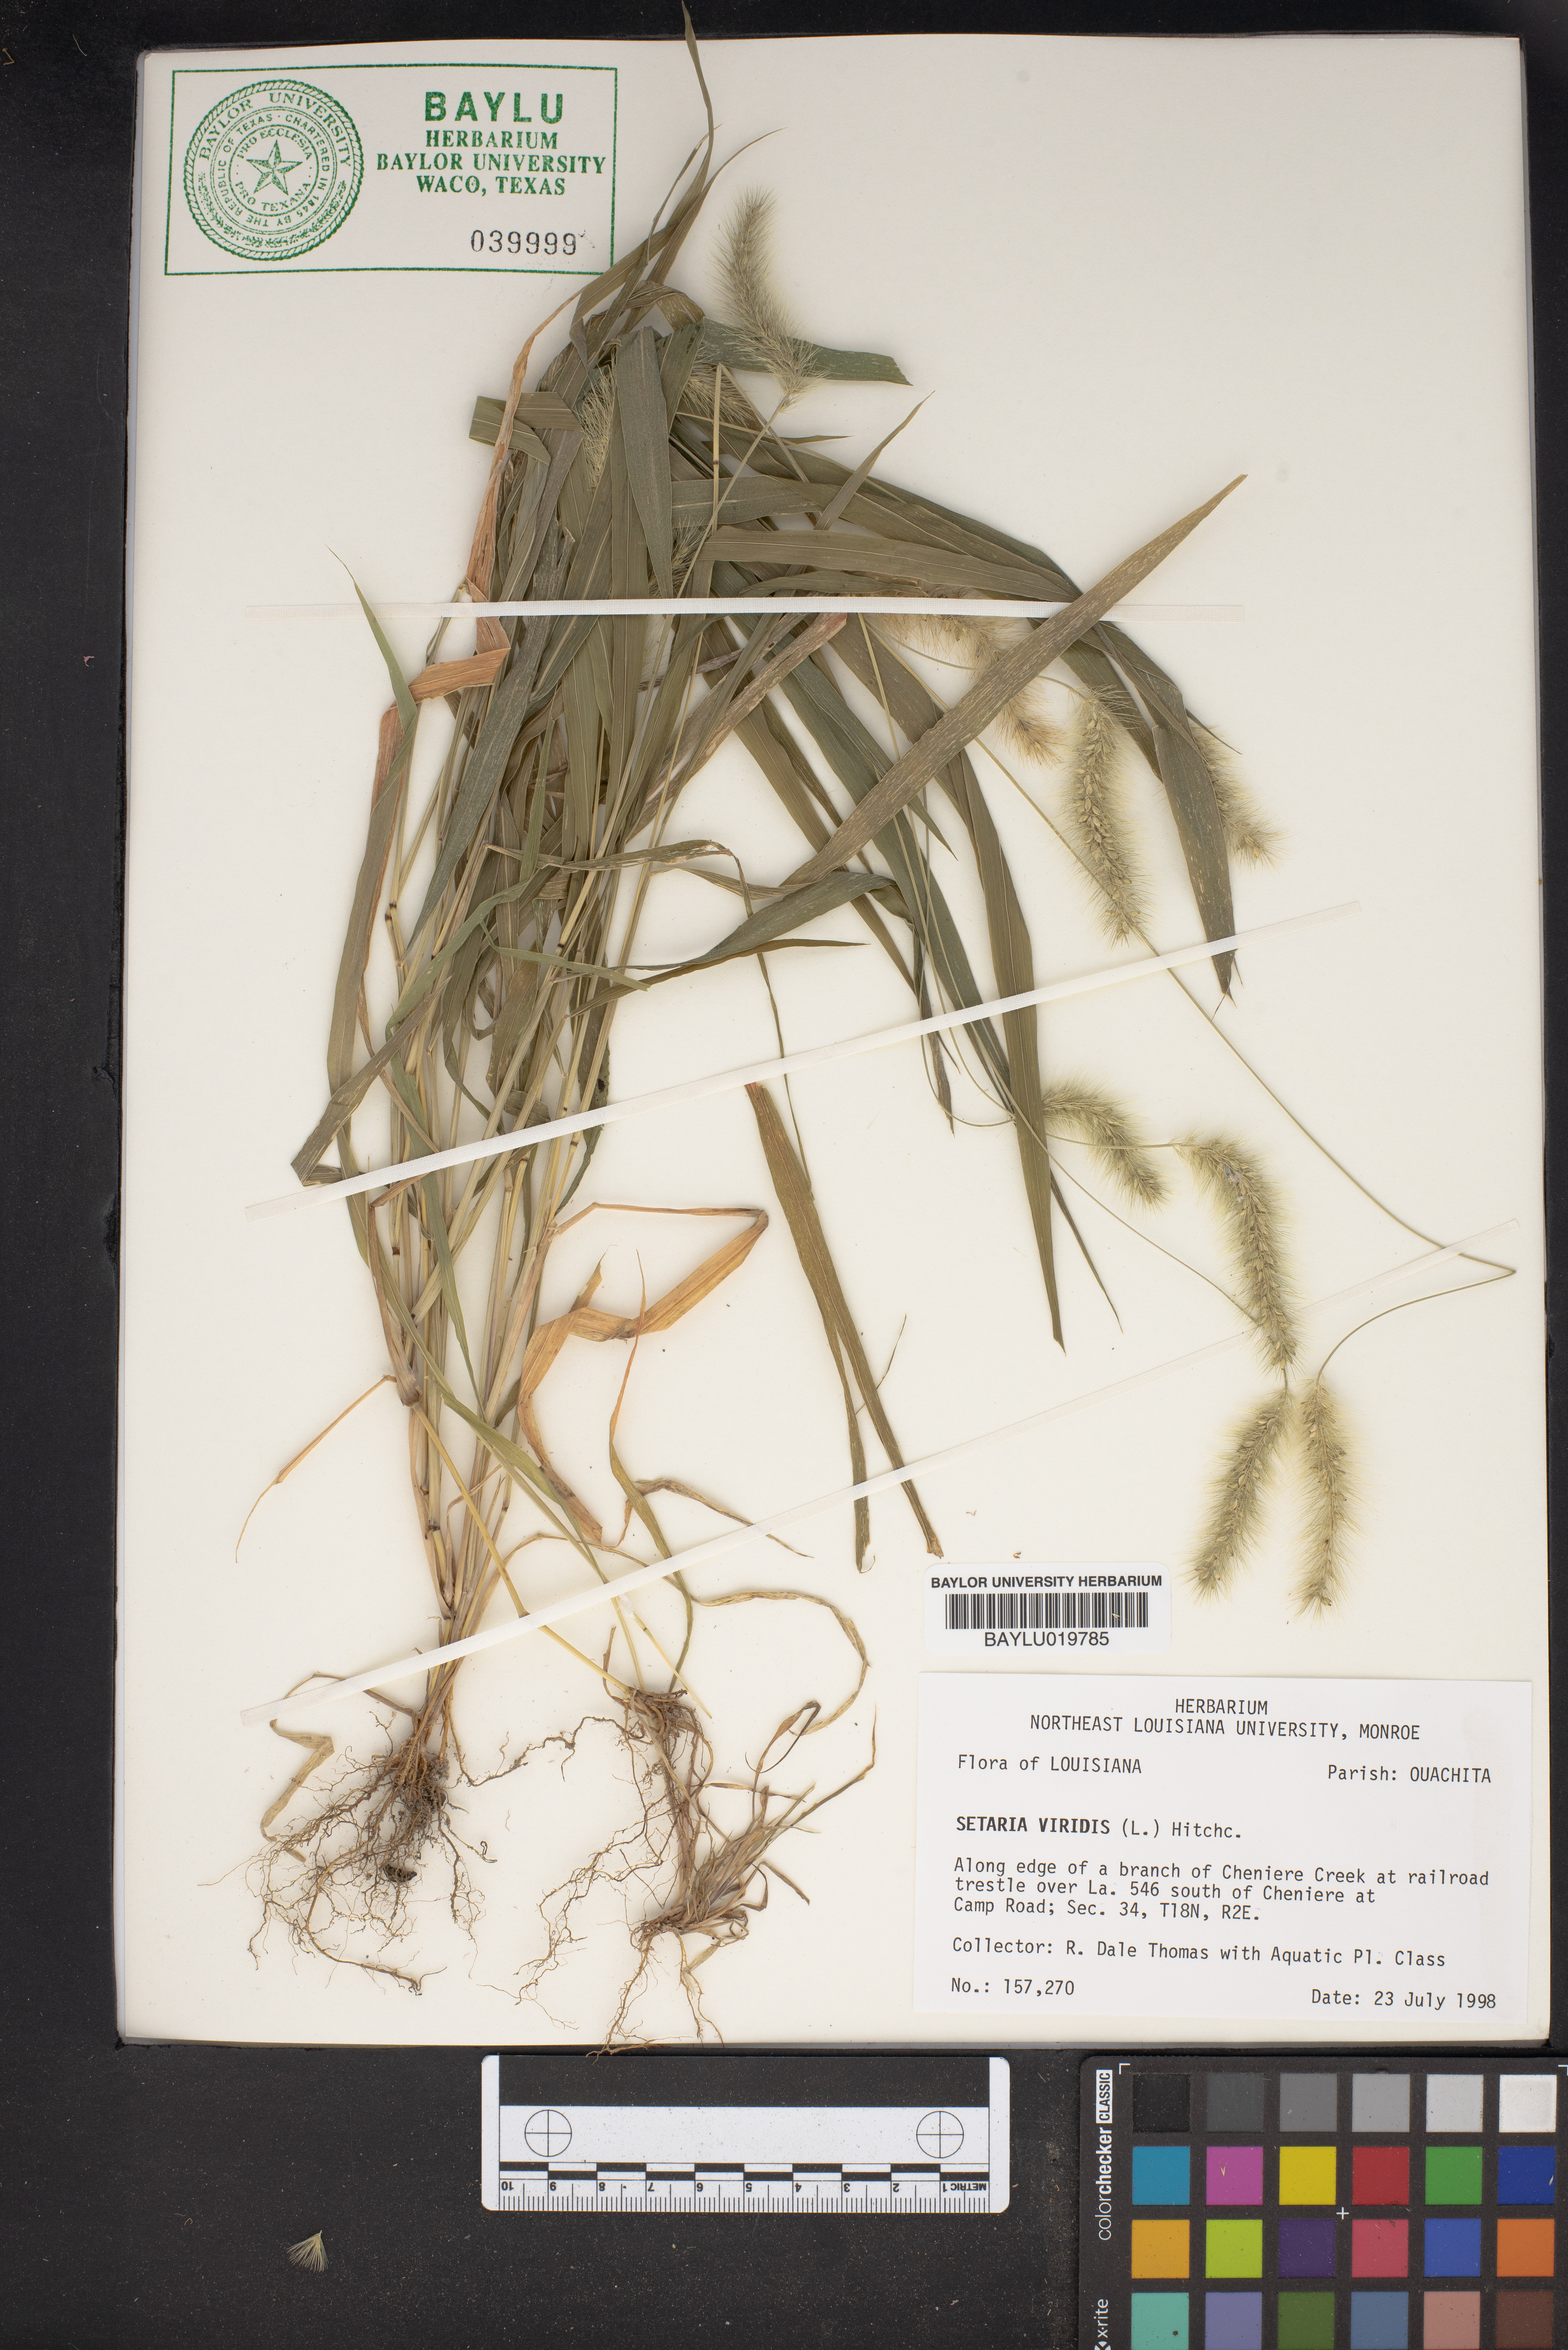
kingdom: Plantae
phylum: Tracheophyta
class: Liliopsida
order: Poales
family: Poaceae
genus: Setaria
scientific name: Setaria viridis
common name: Green bristlegrass
